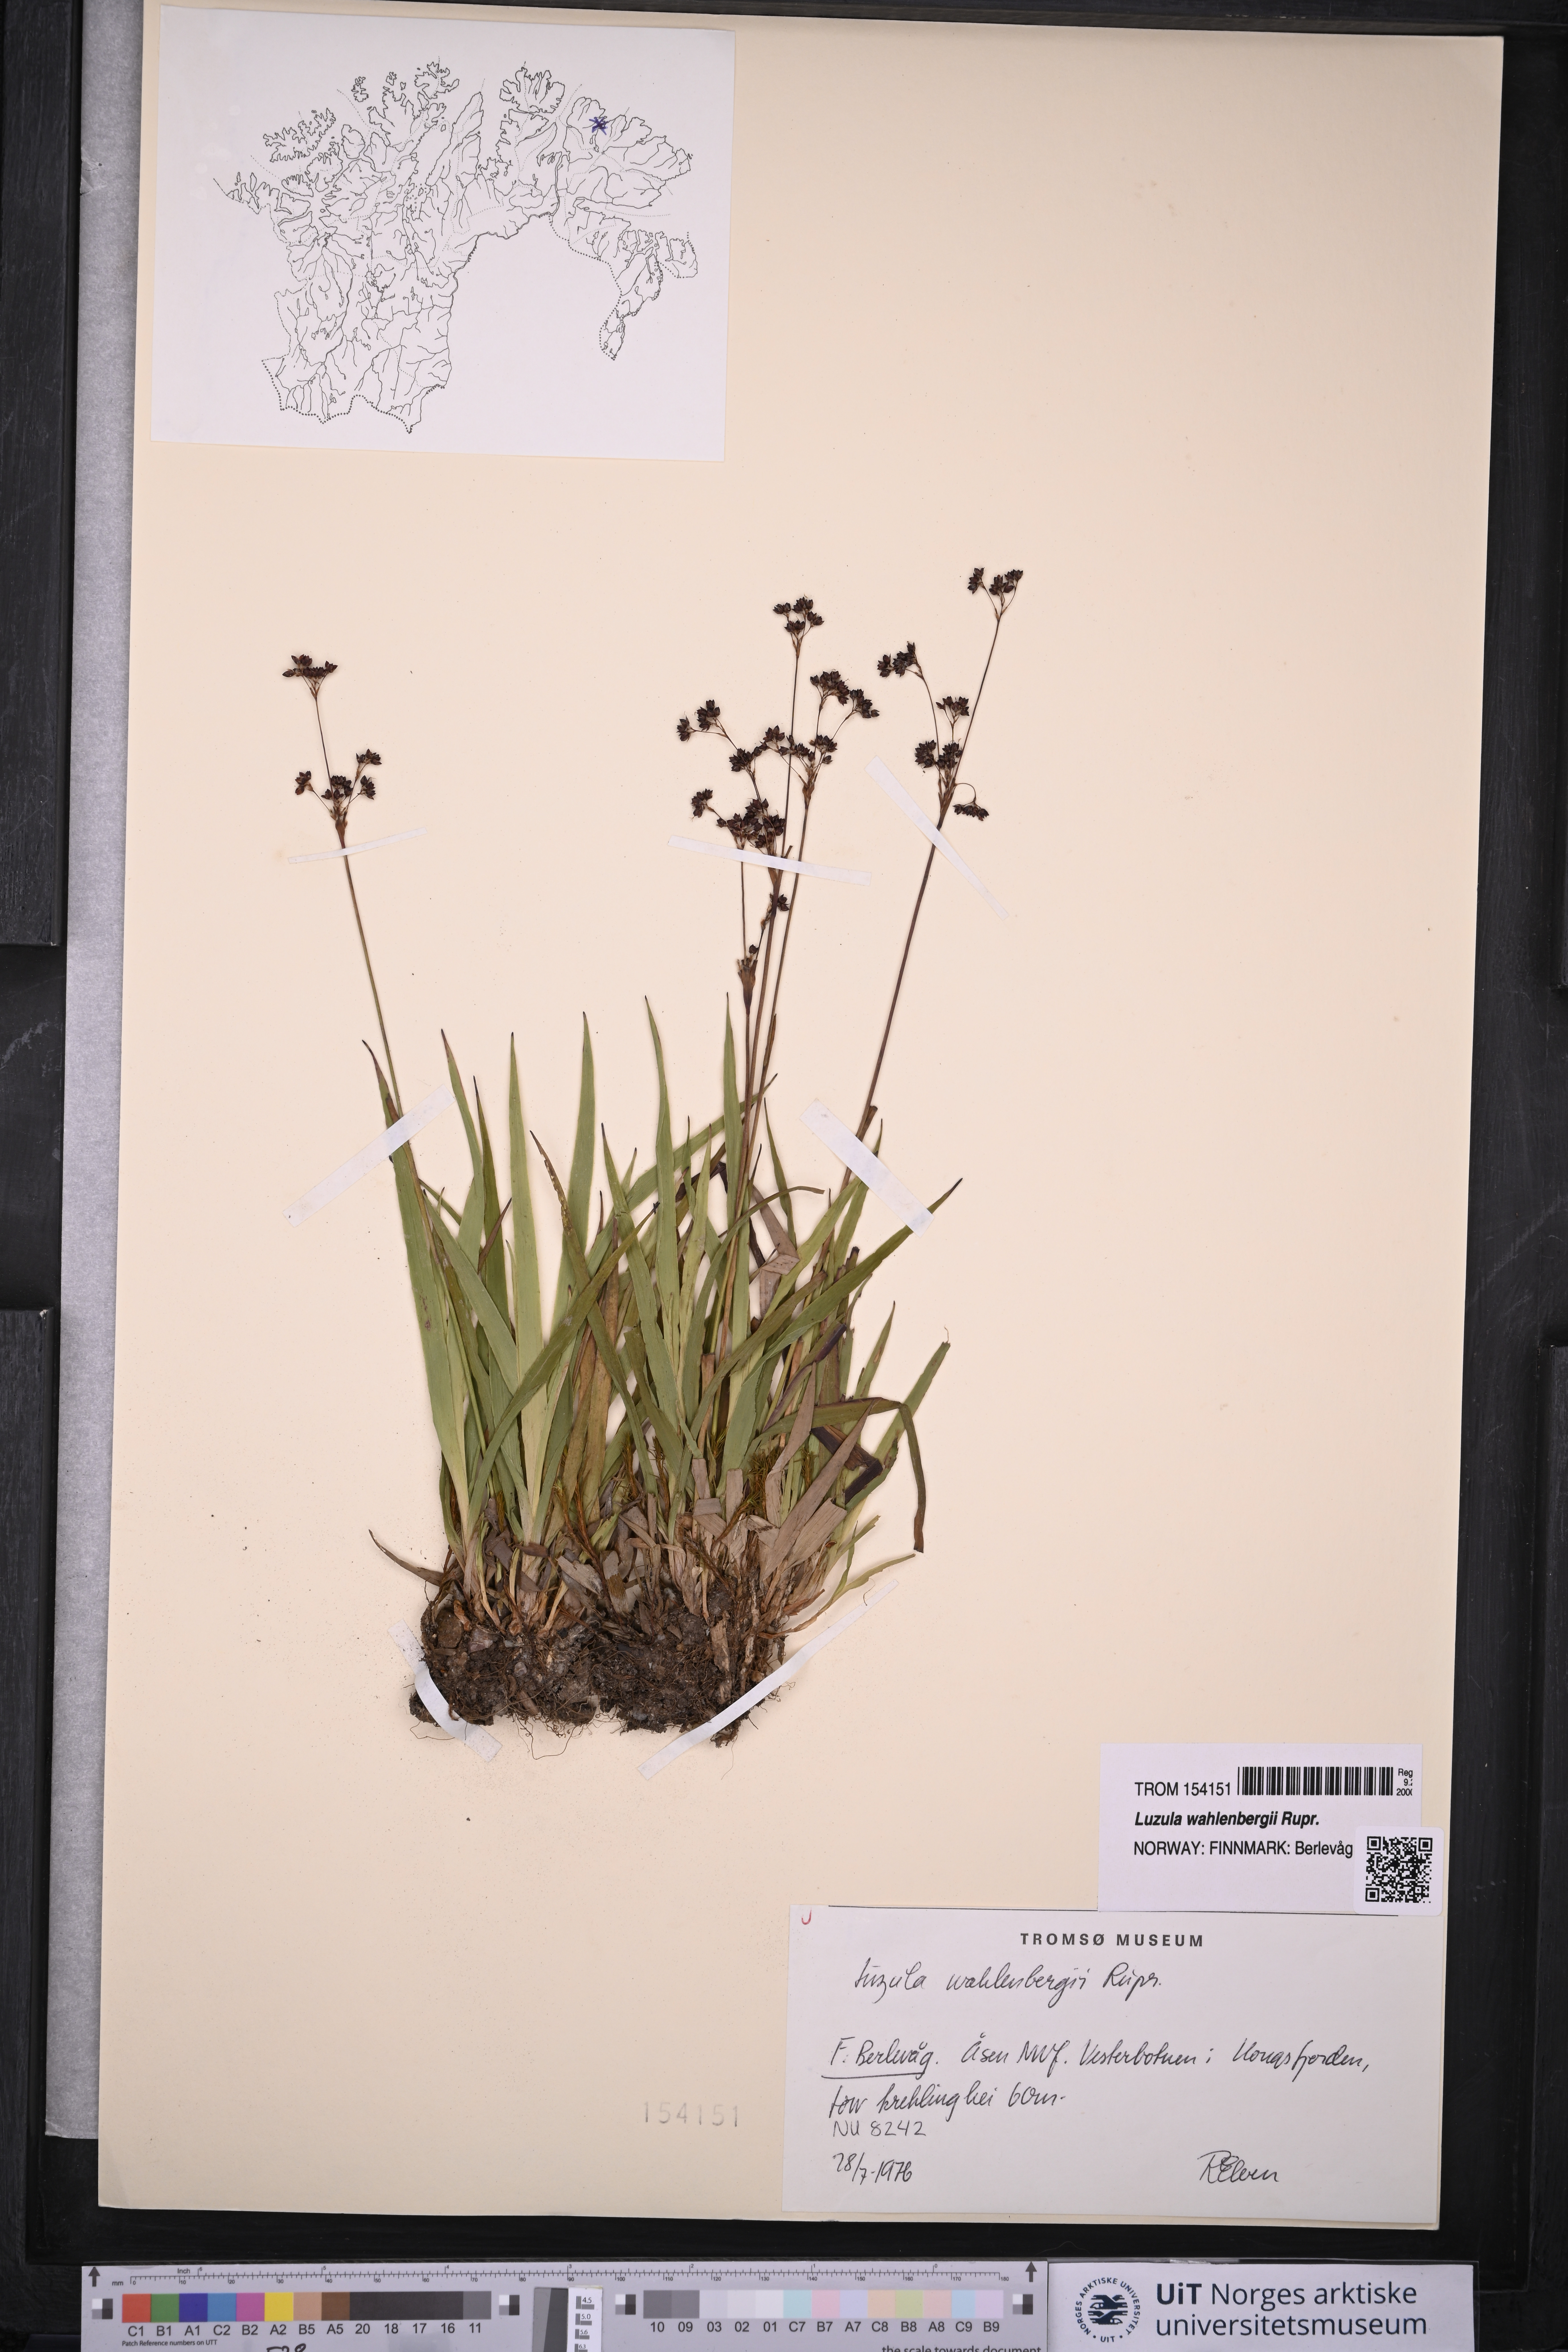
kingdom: Plantae
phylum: Tracheophyta
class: Liliopsida
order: Poales
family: Juncaceae
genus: Luzula
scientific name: Luzula wahlenbergii
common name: Wahlenberg's wood-rush
